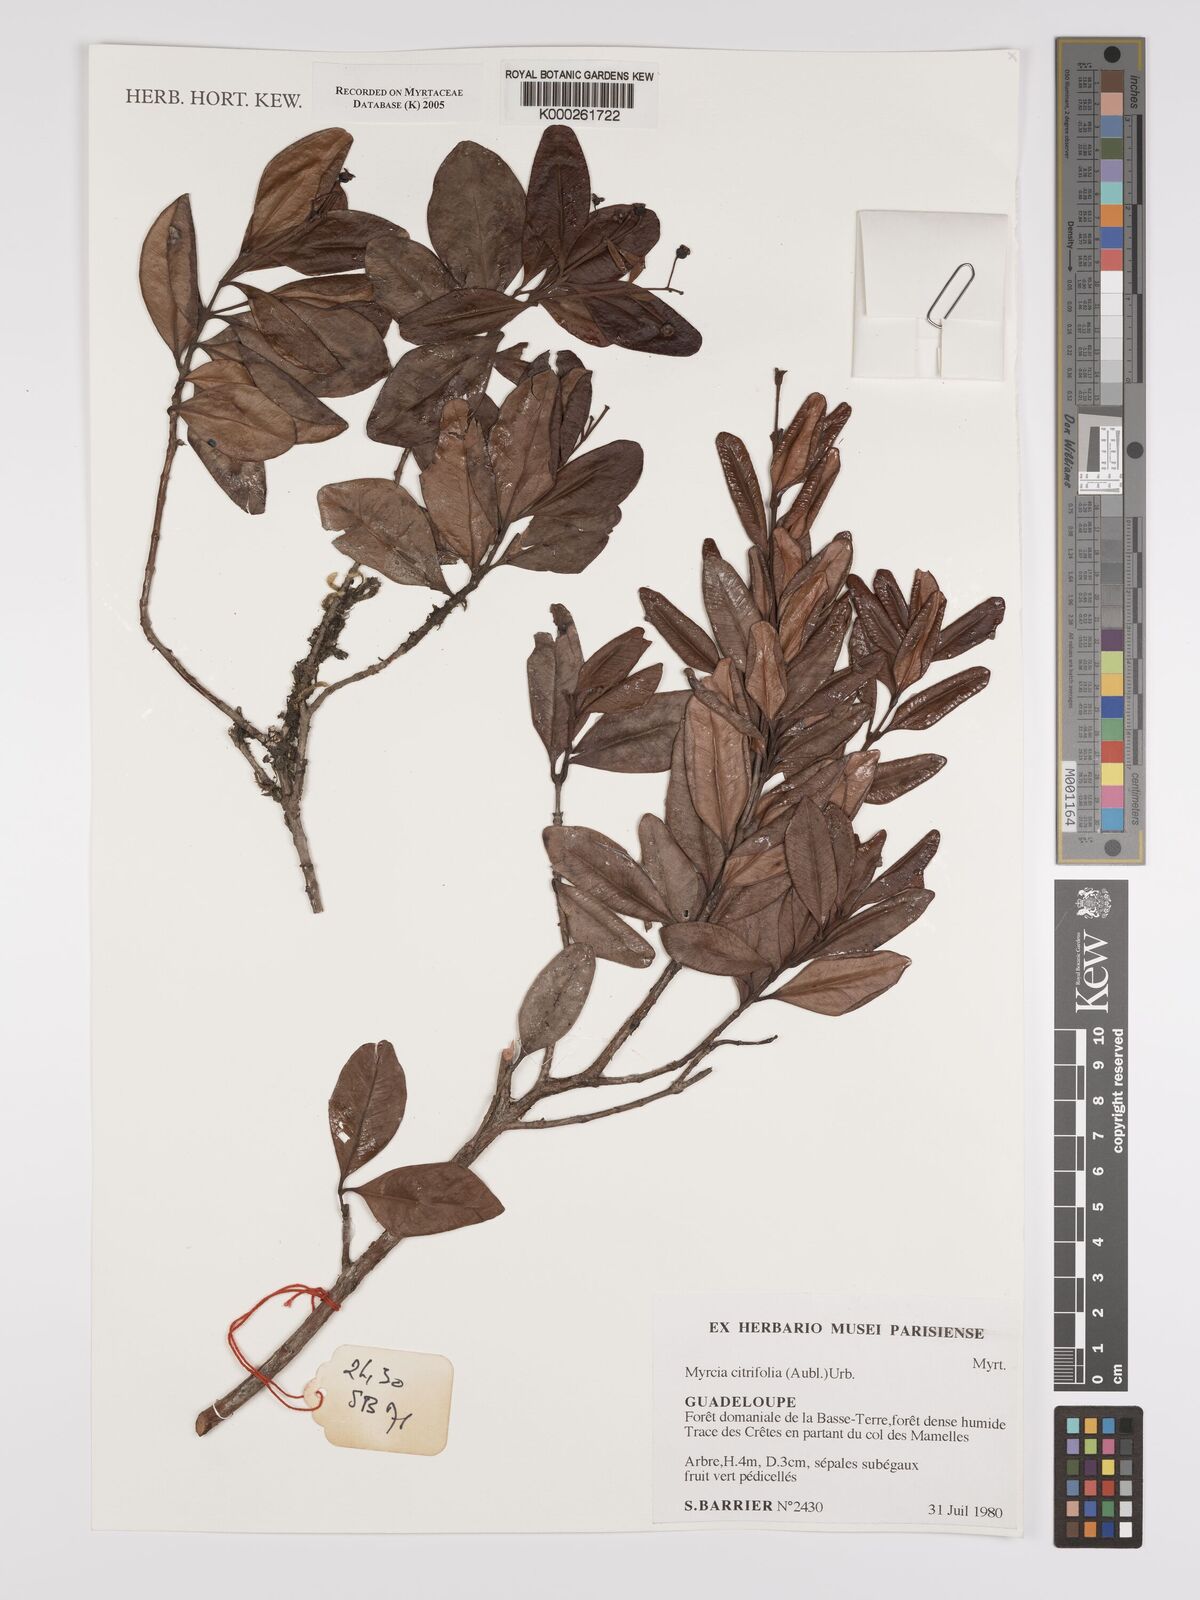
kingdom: Plantae
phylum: Tracheophyta
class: Magnoliopsida
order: Myrtales
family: Myrtaceae
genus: Myrcia
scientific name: Myrcia guianensis
